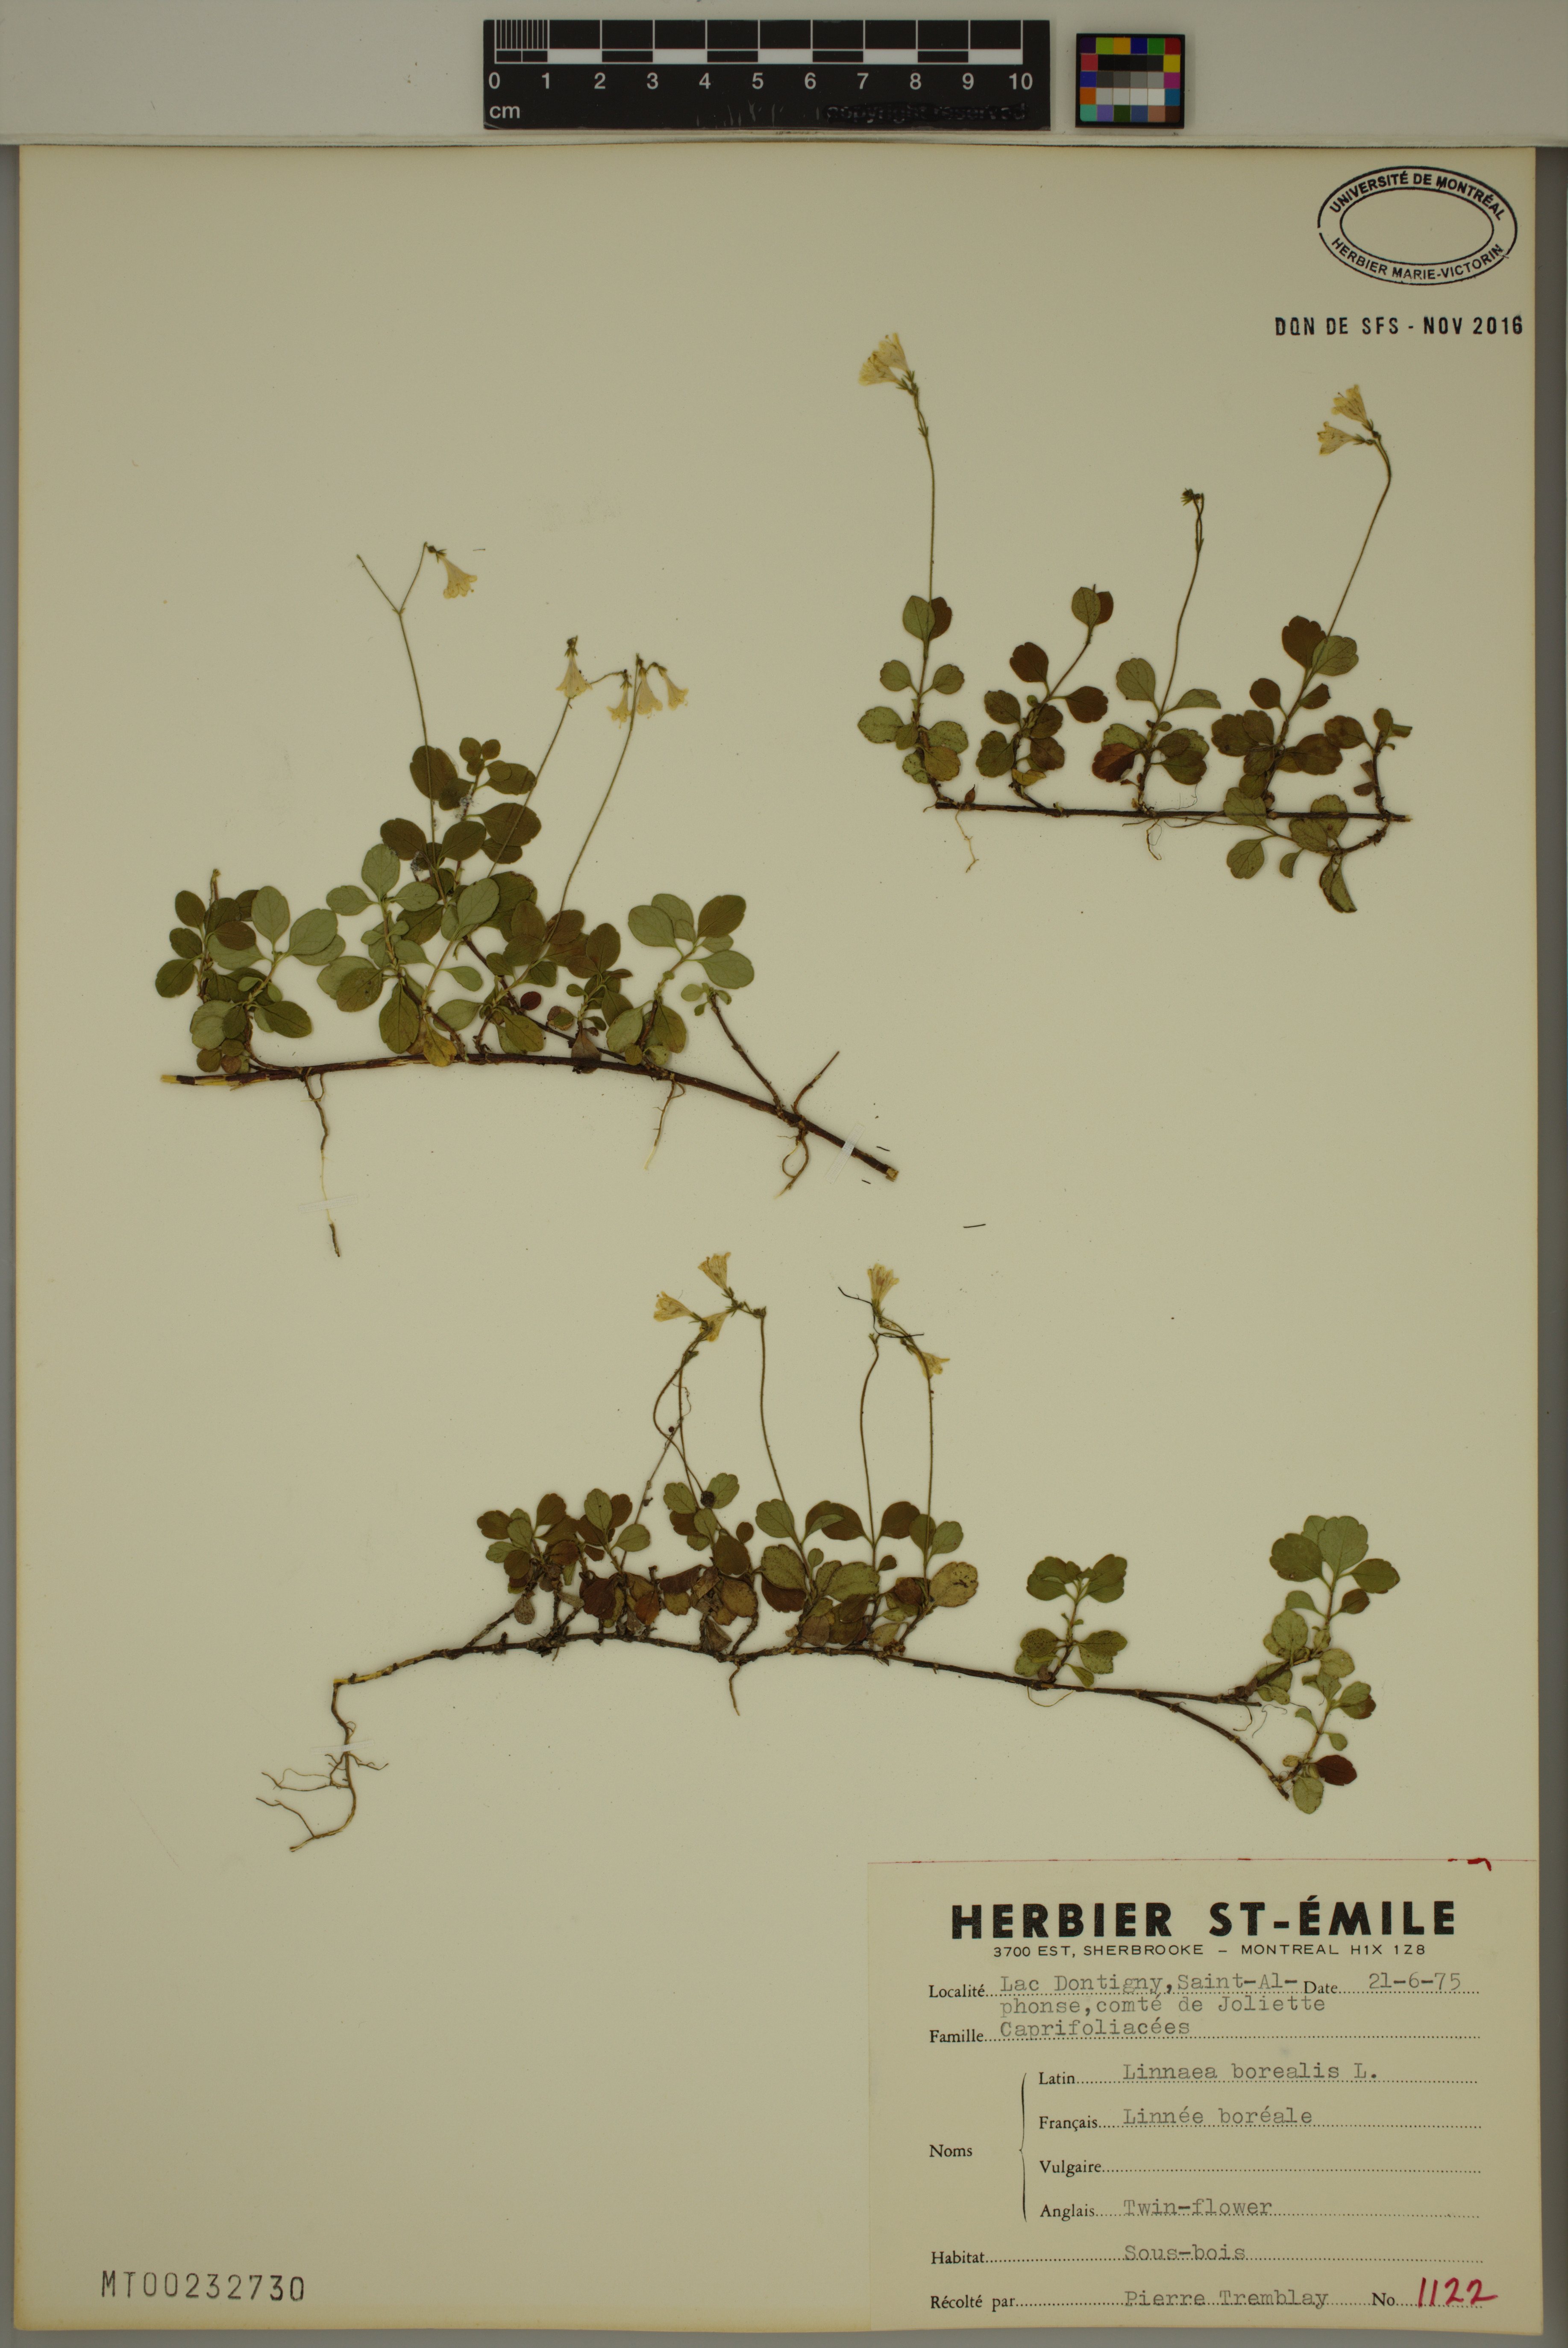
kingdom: Plantae
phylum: Tracheophyta
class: Magnoliopsida
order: Dipsacales
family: Caprifoliaceae
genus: Linnaea
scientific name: Linnaea borealis
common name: Twinflower
